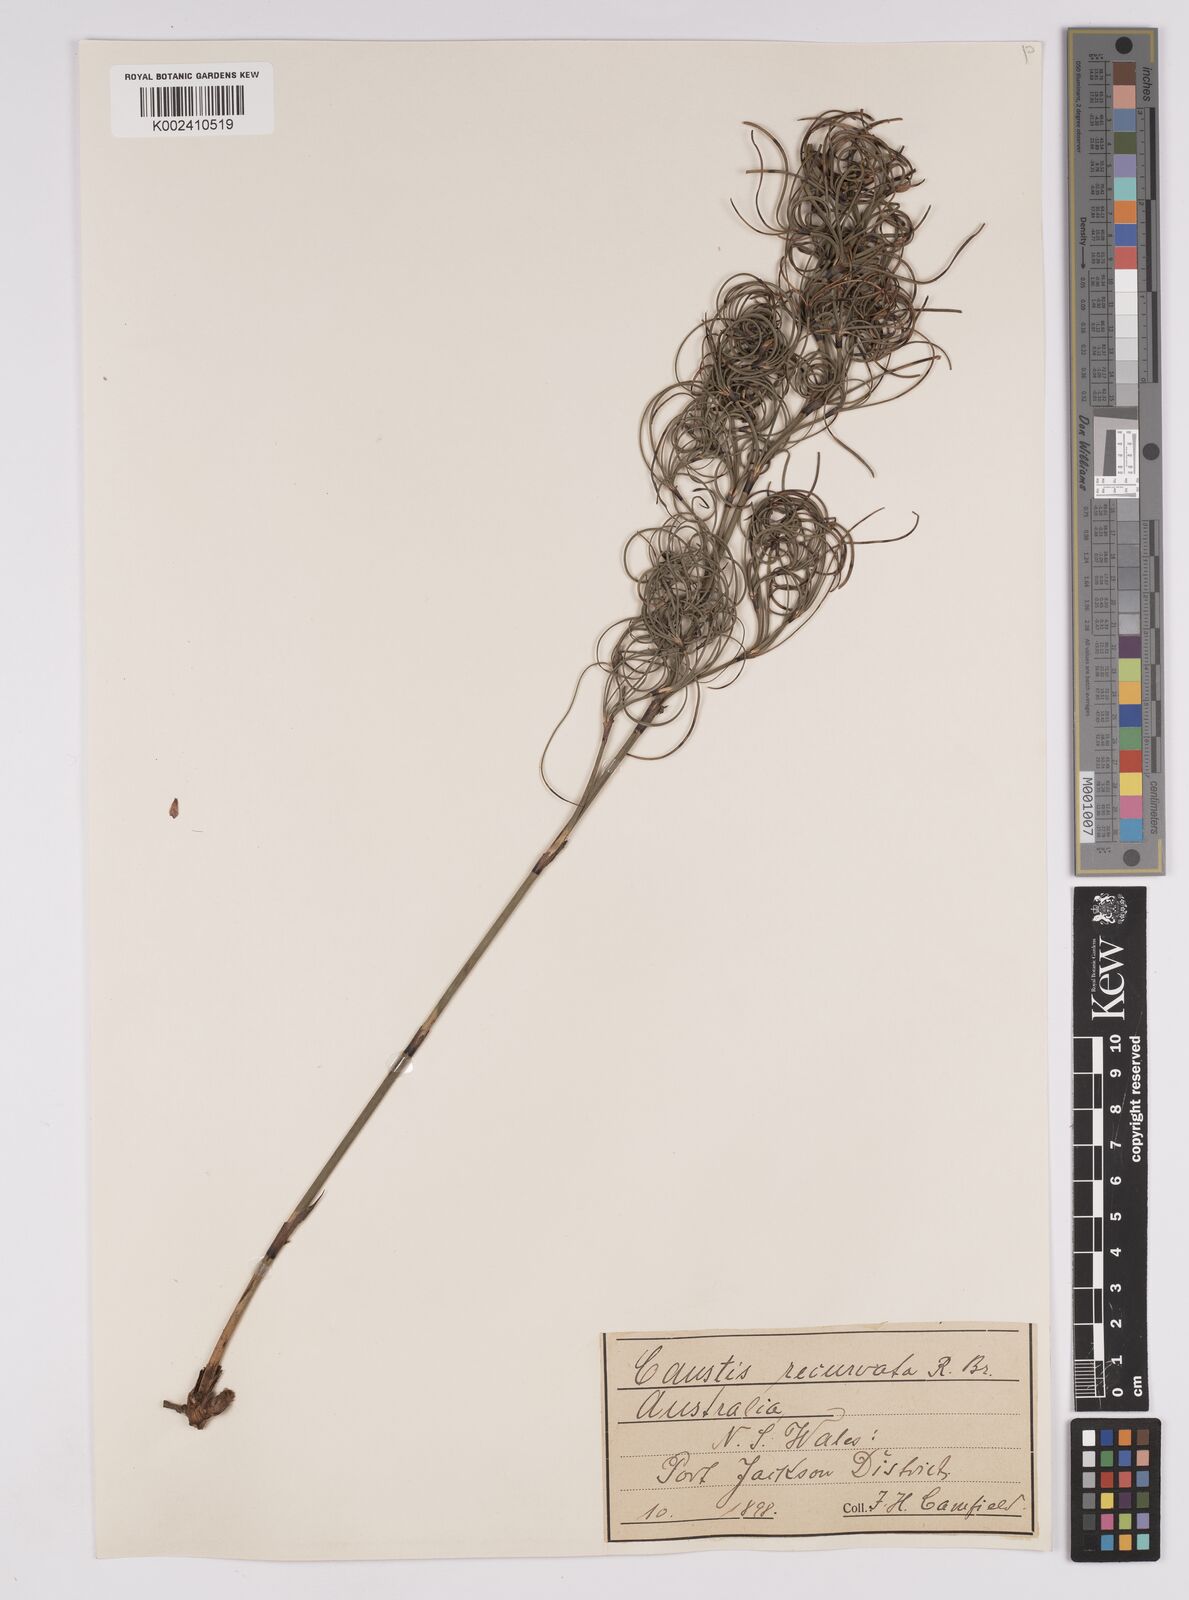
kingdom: Plantae
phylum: Tracheophyta
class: Liliopsida
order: Poales
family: Cyperaceae
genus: Caustis
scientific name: Caustis recurvata
